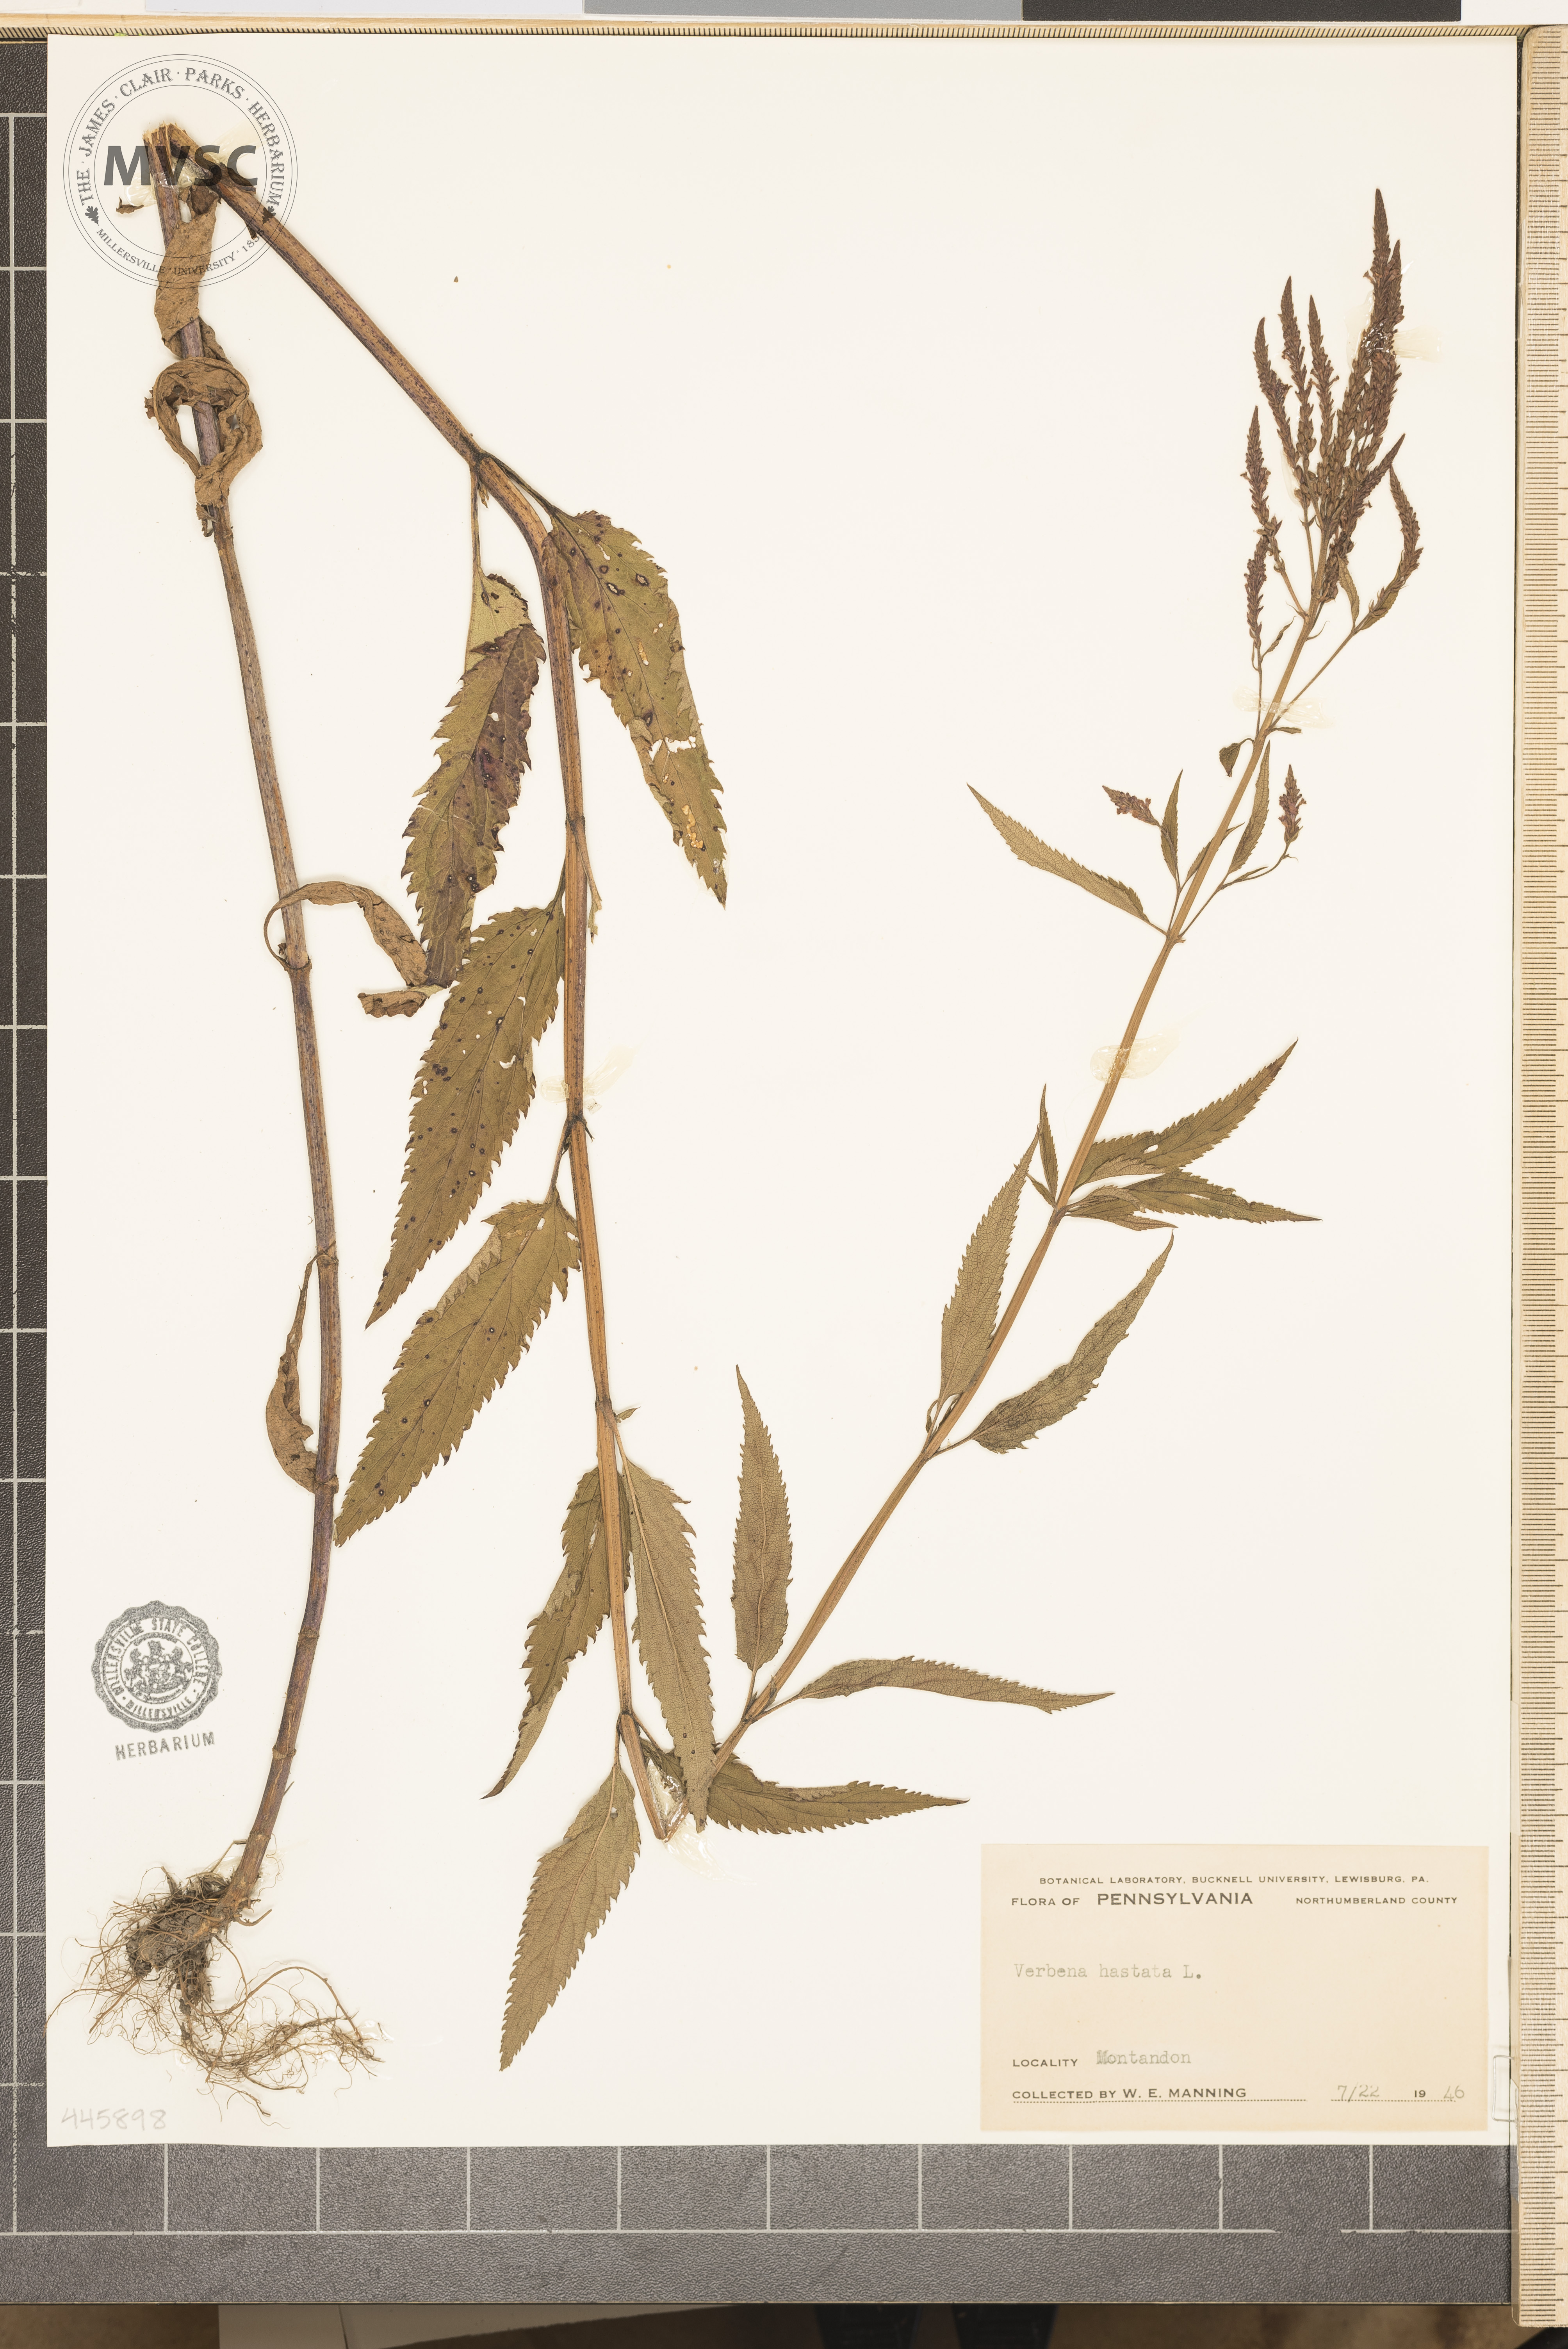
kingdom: Plantae
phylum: Tracheophyta
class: Magnoliopsida
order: Lamiales
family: Verbenaceae
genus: Verbena
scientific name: Verbena hastata
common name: American blue vervain
